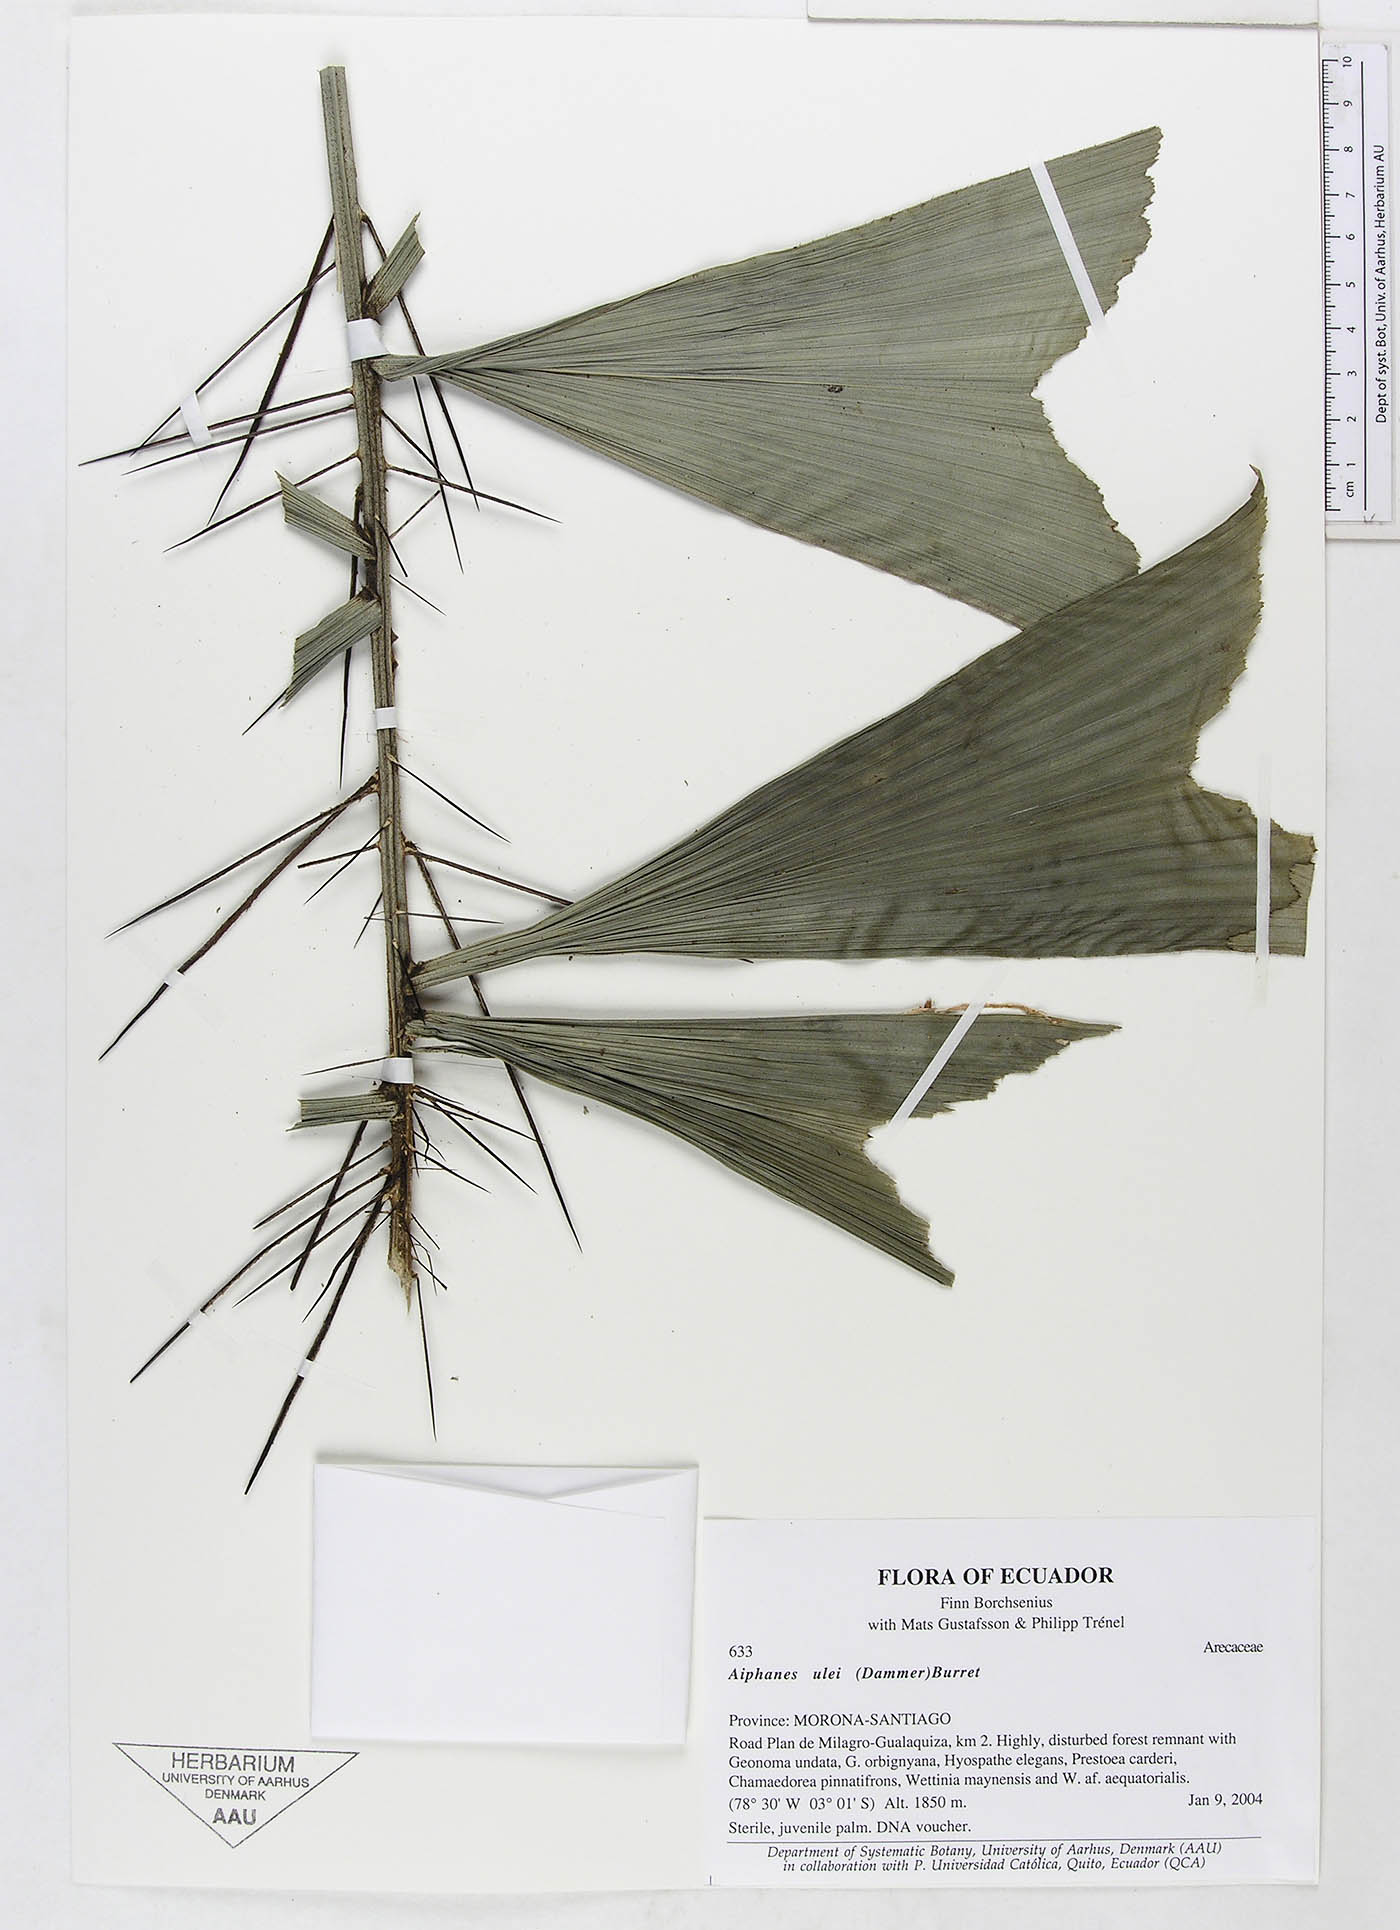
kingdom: Plantae
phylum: Tracheophyta
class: Liliopsida
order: Arecales
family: Arecaceae
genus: Aiphanes
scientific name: Aiphanes ulei
